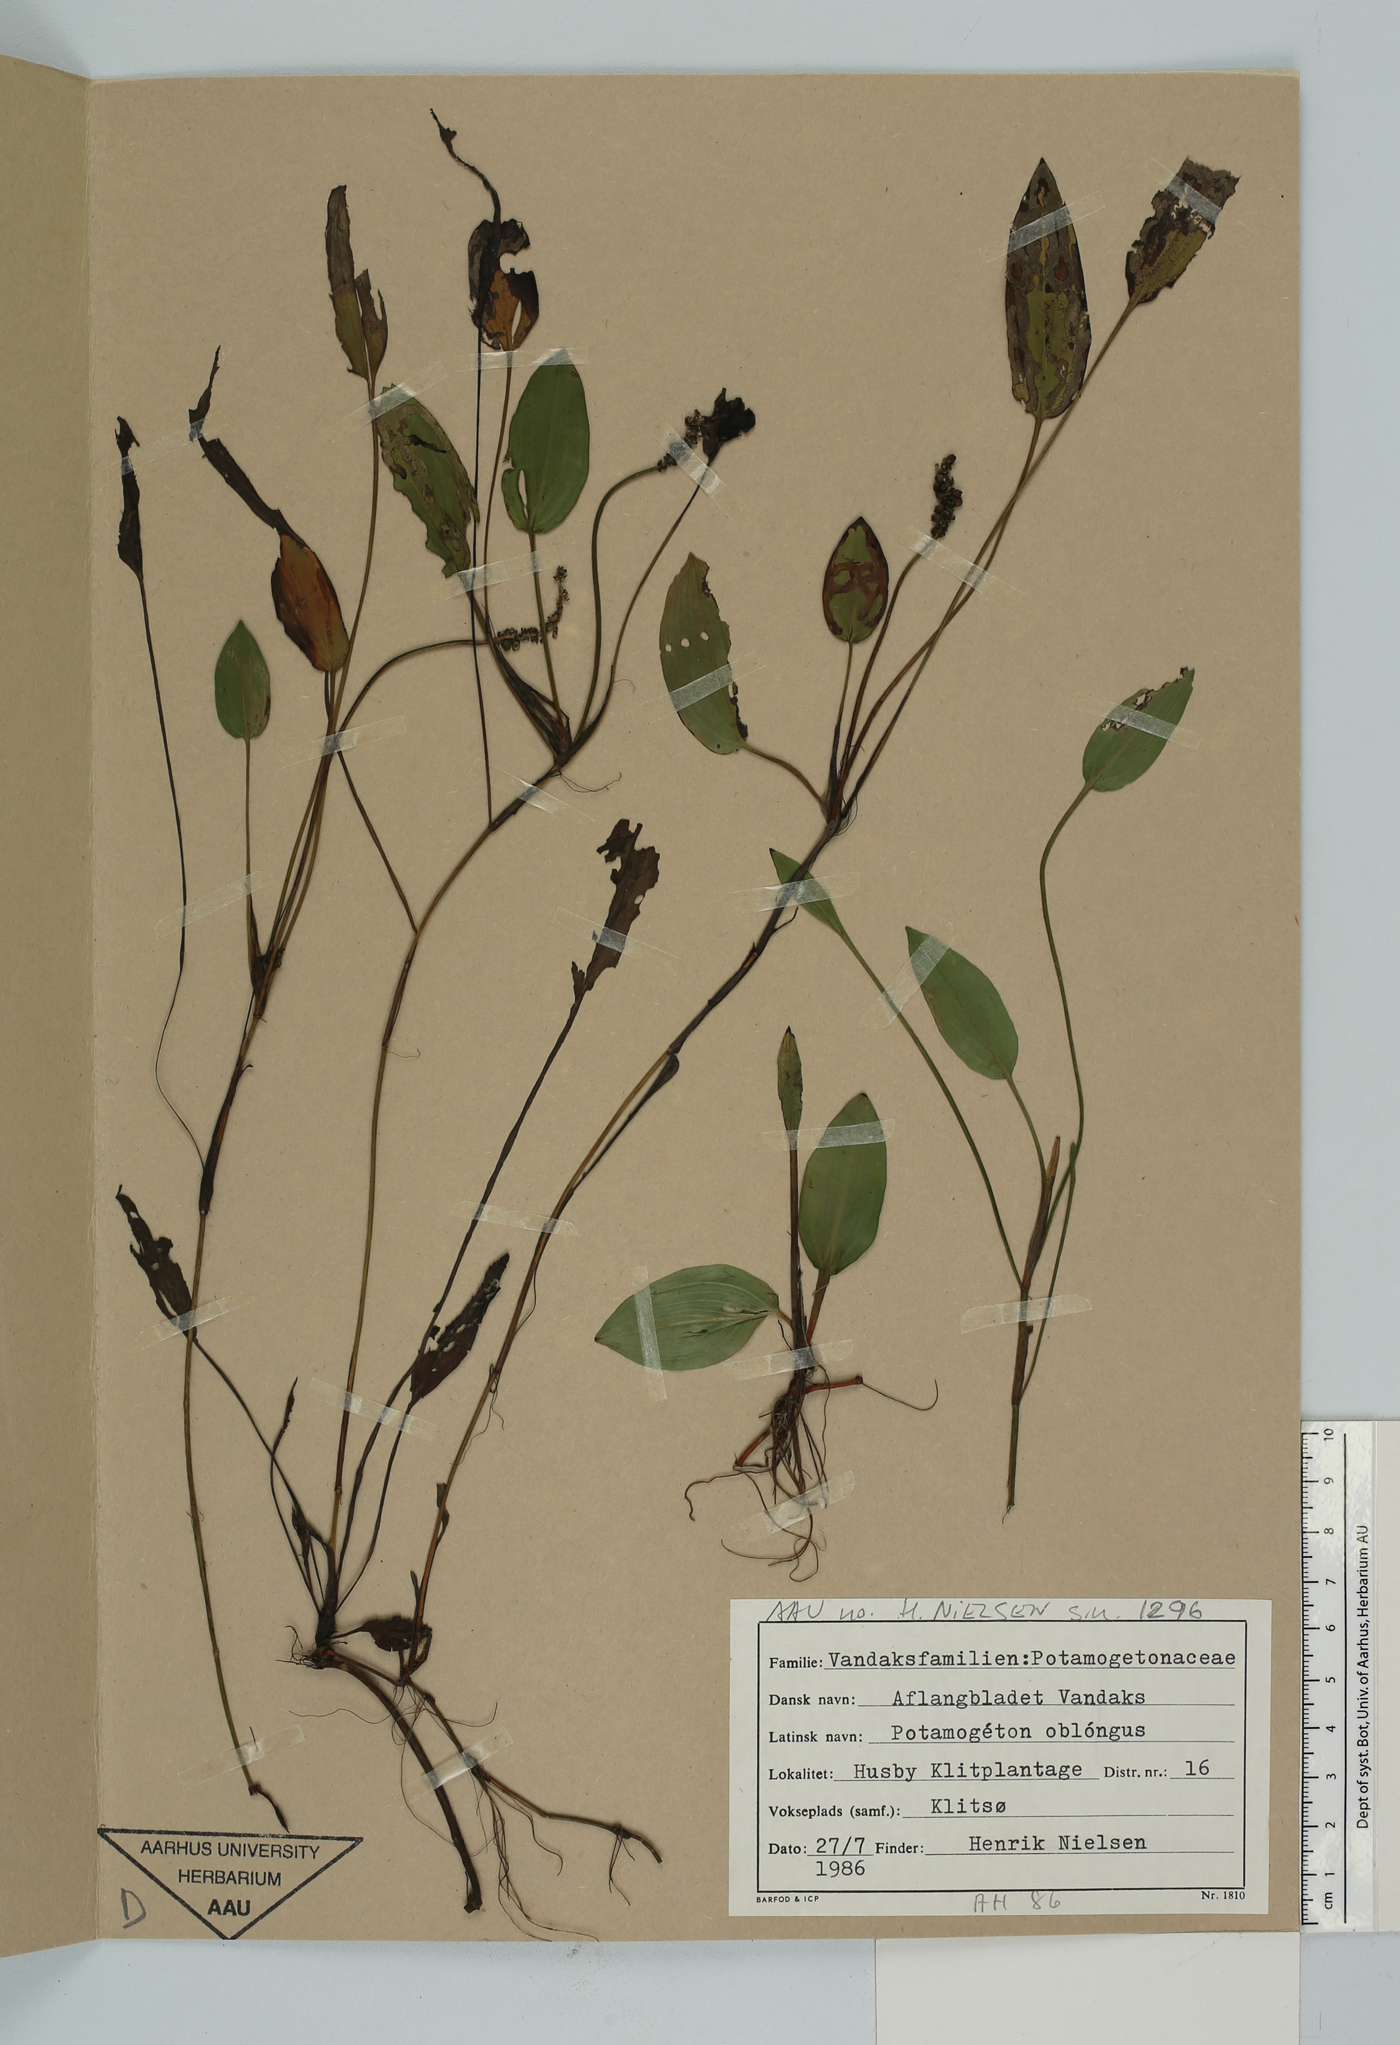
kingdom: Plantae
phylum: Tracheophyta
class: Liliopsida
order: Alismatales
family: Potamogetonaceae
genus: Potamogeton
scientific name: Potamogeton polygonifolius
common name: Bog pondweed
